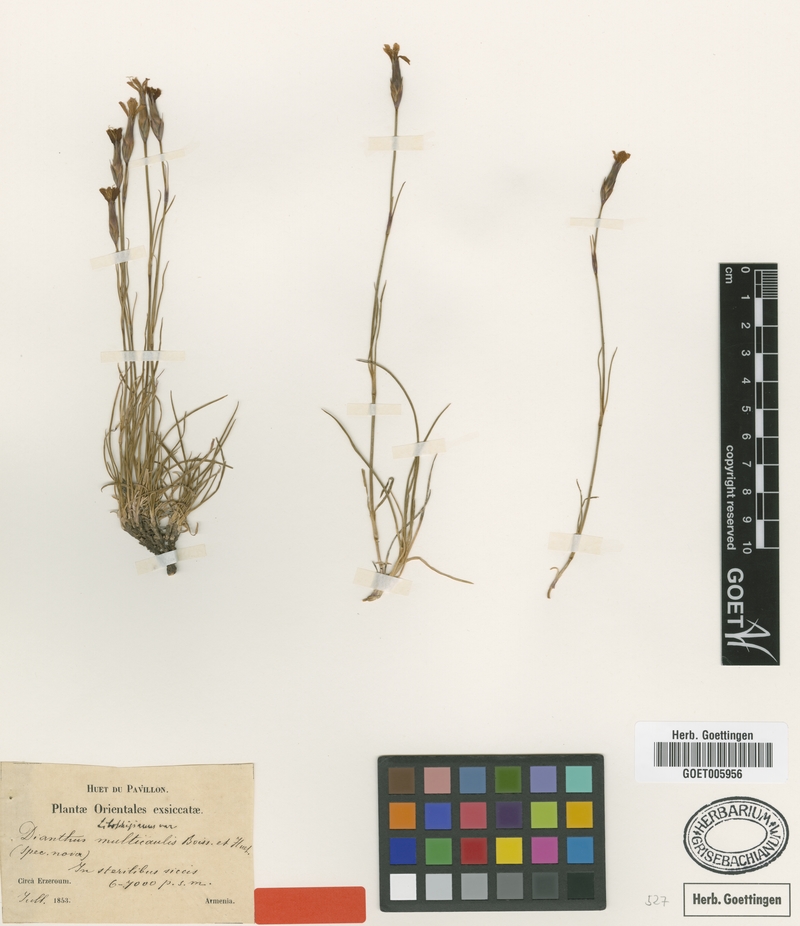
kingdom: Plantae
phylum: Tracheophyta
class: Magnoliopsida
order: Caryophyllales
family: Caryophyllaceae
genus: Dianthus
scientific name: Dianthus cretaceus
